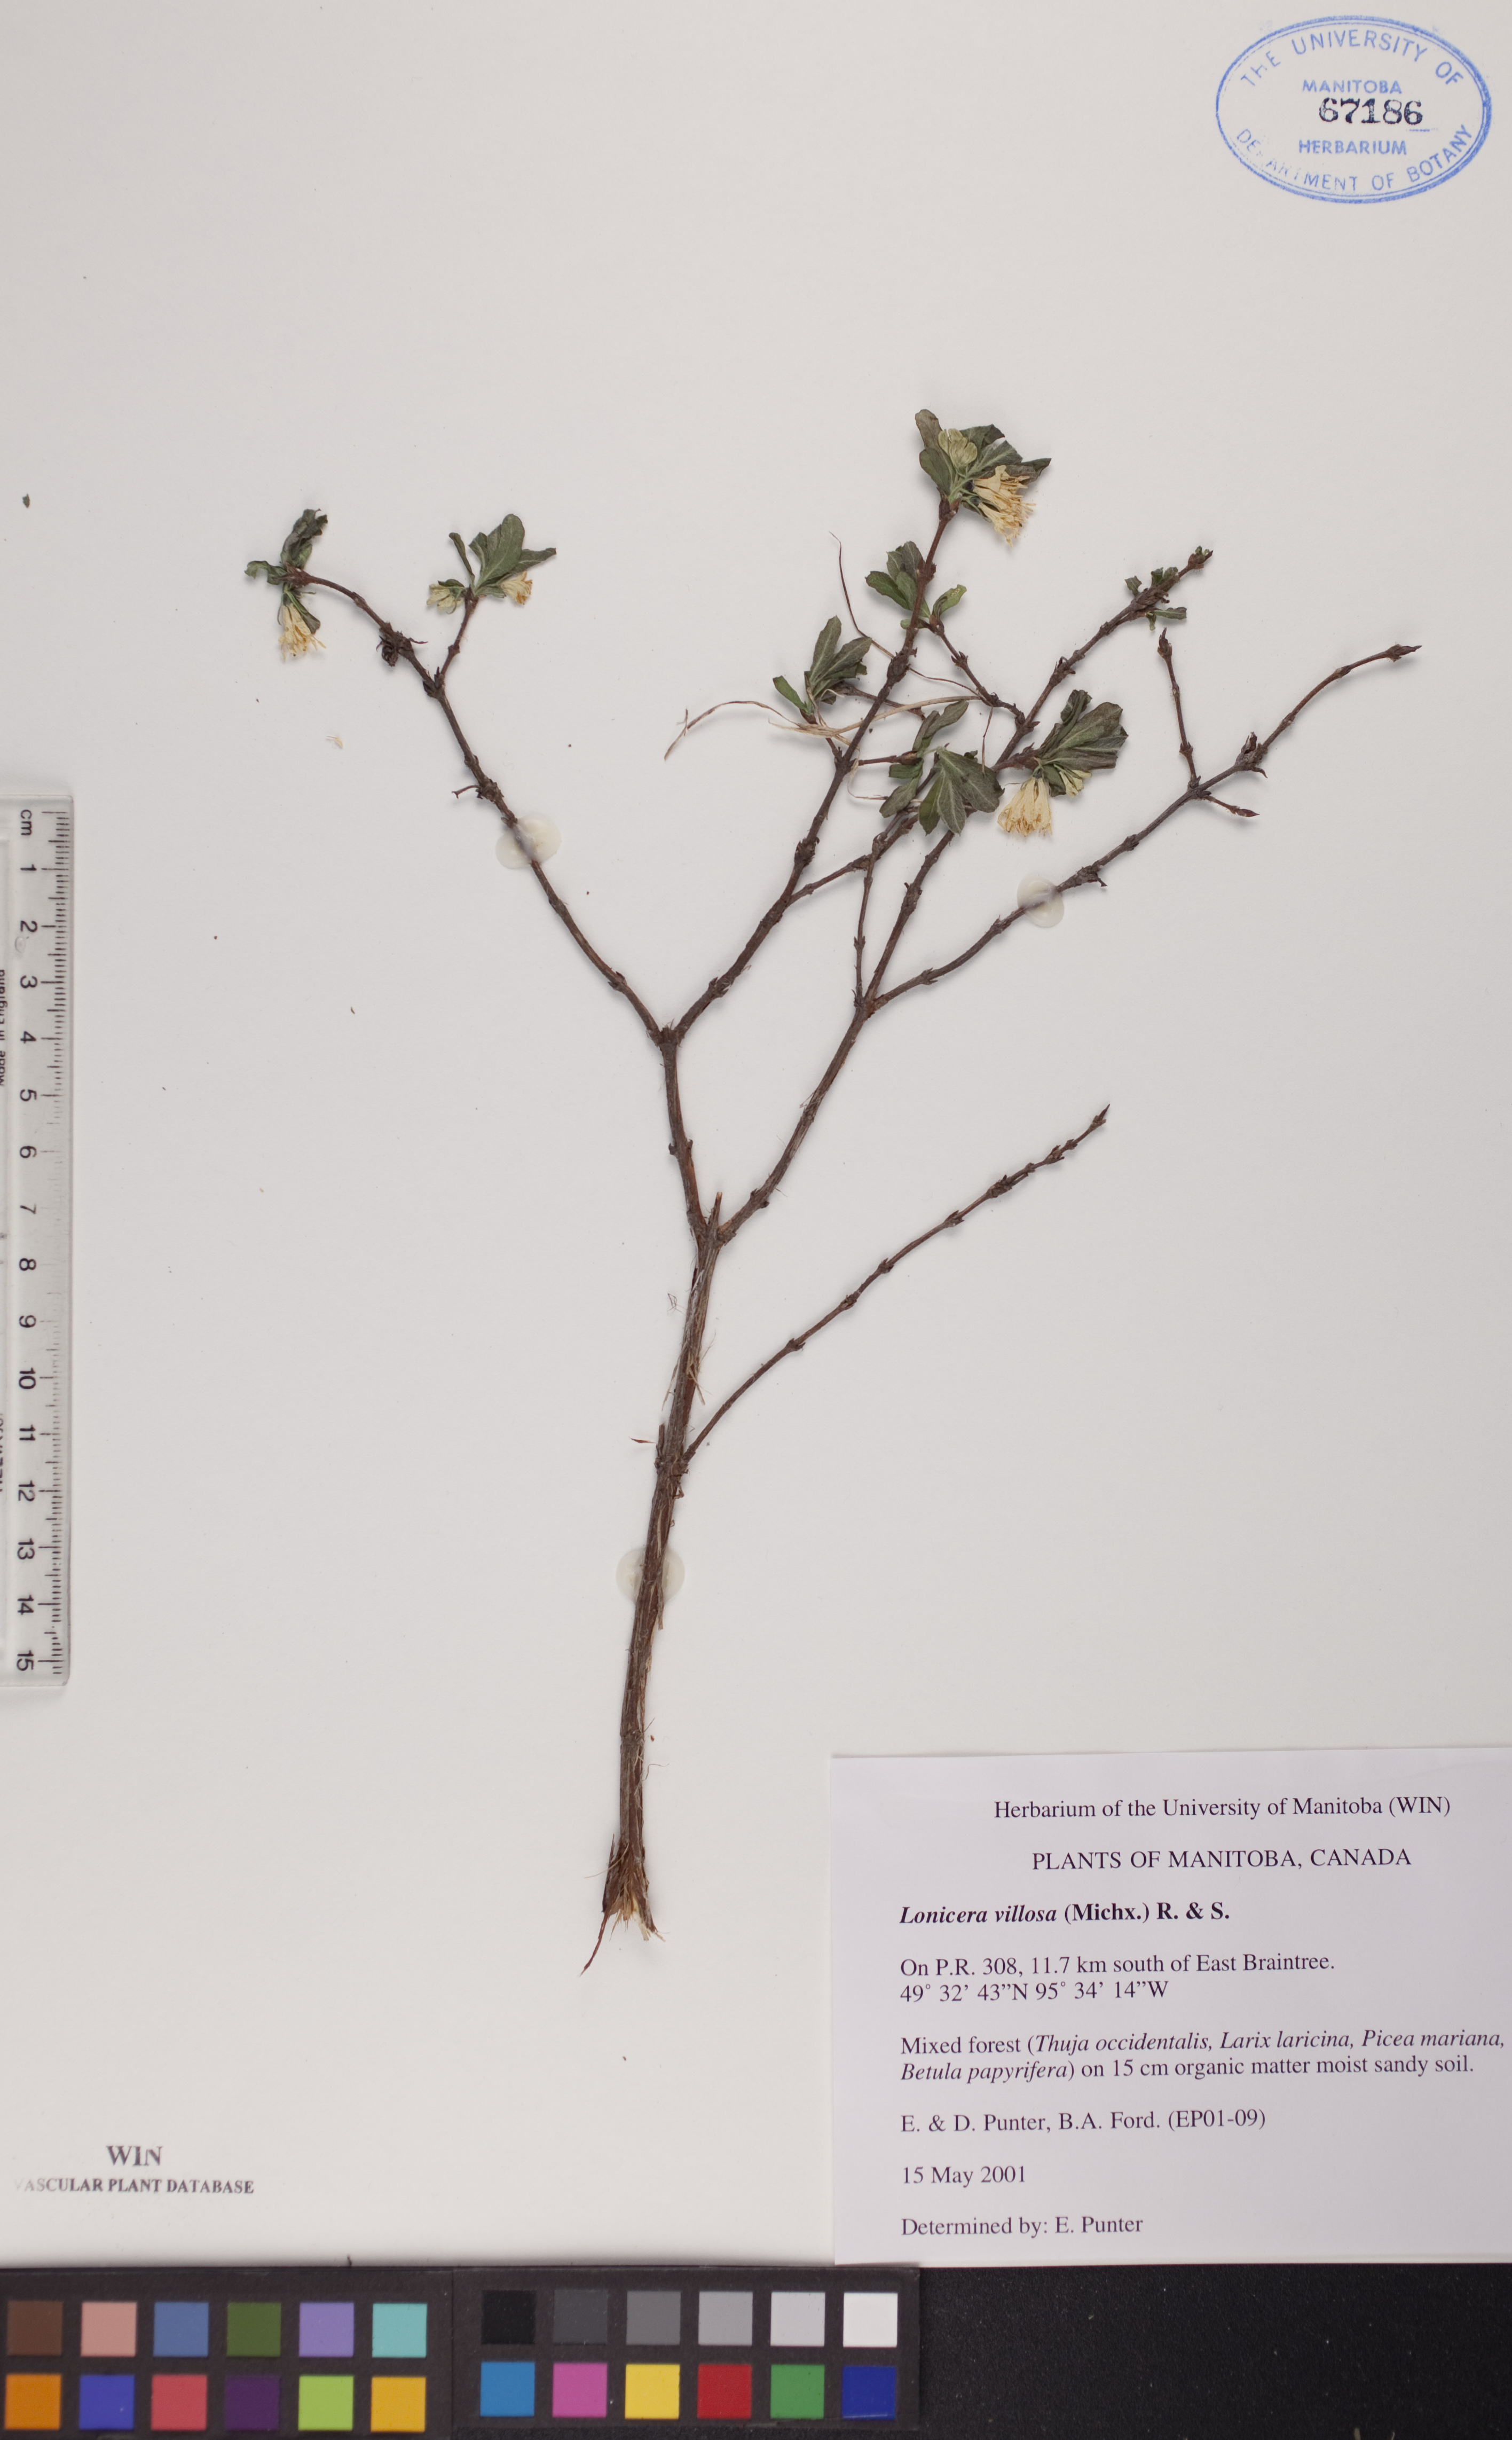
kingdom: Plantae
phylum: Tracheophyta
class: Magnoliopsida
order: Dipsacales
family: Caprifoliaceae
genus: Lonicera
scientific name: Lonicera villosa
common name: Mountain fly-honeysuckle
